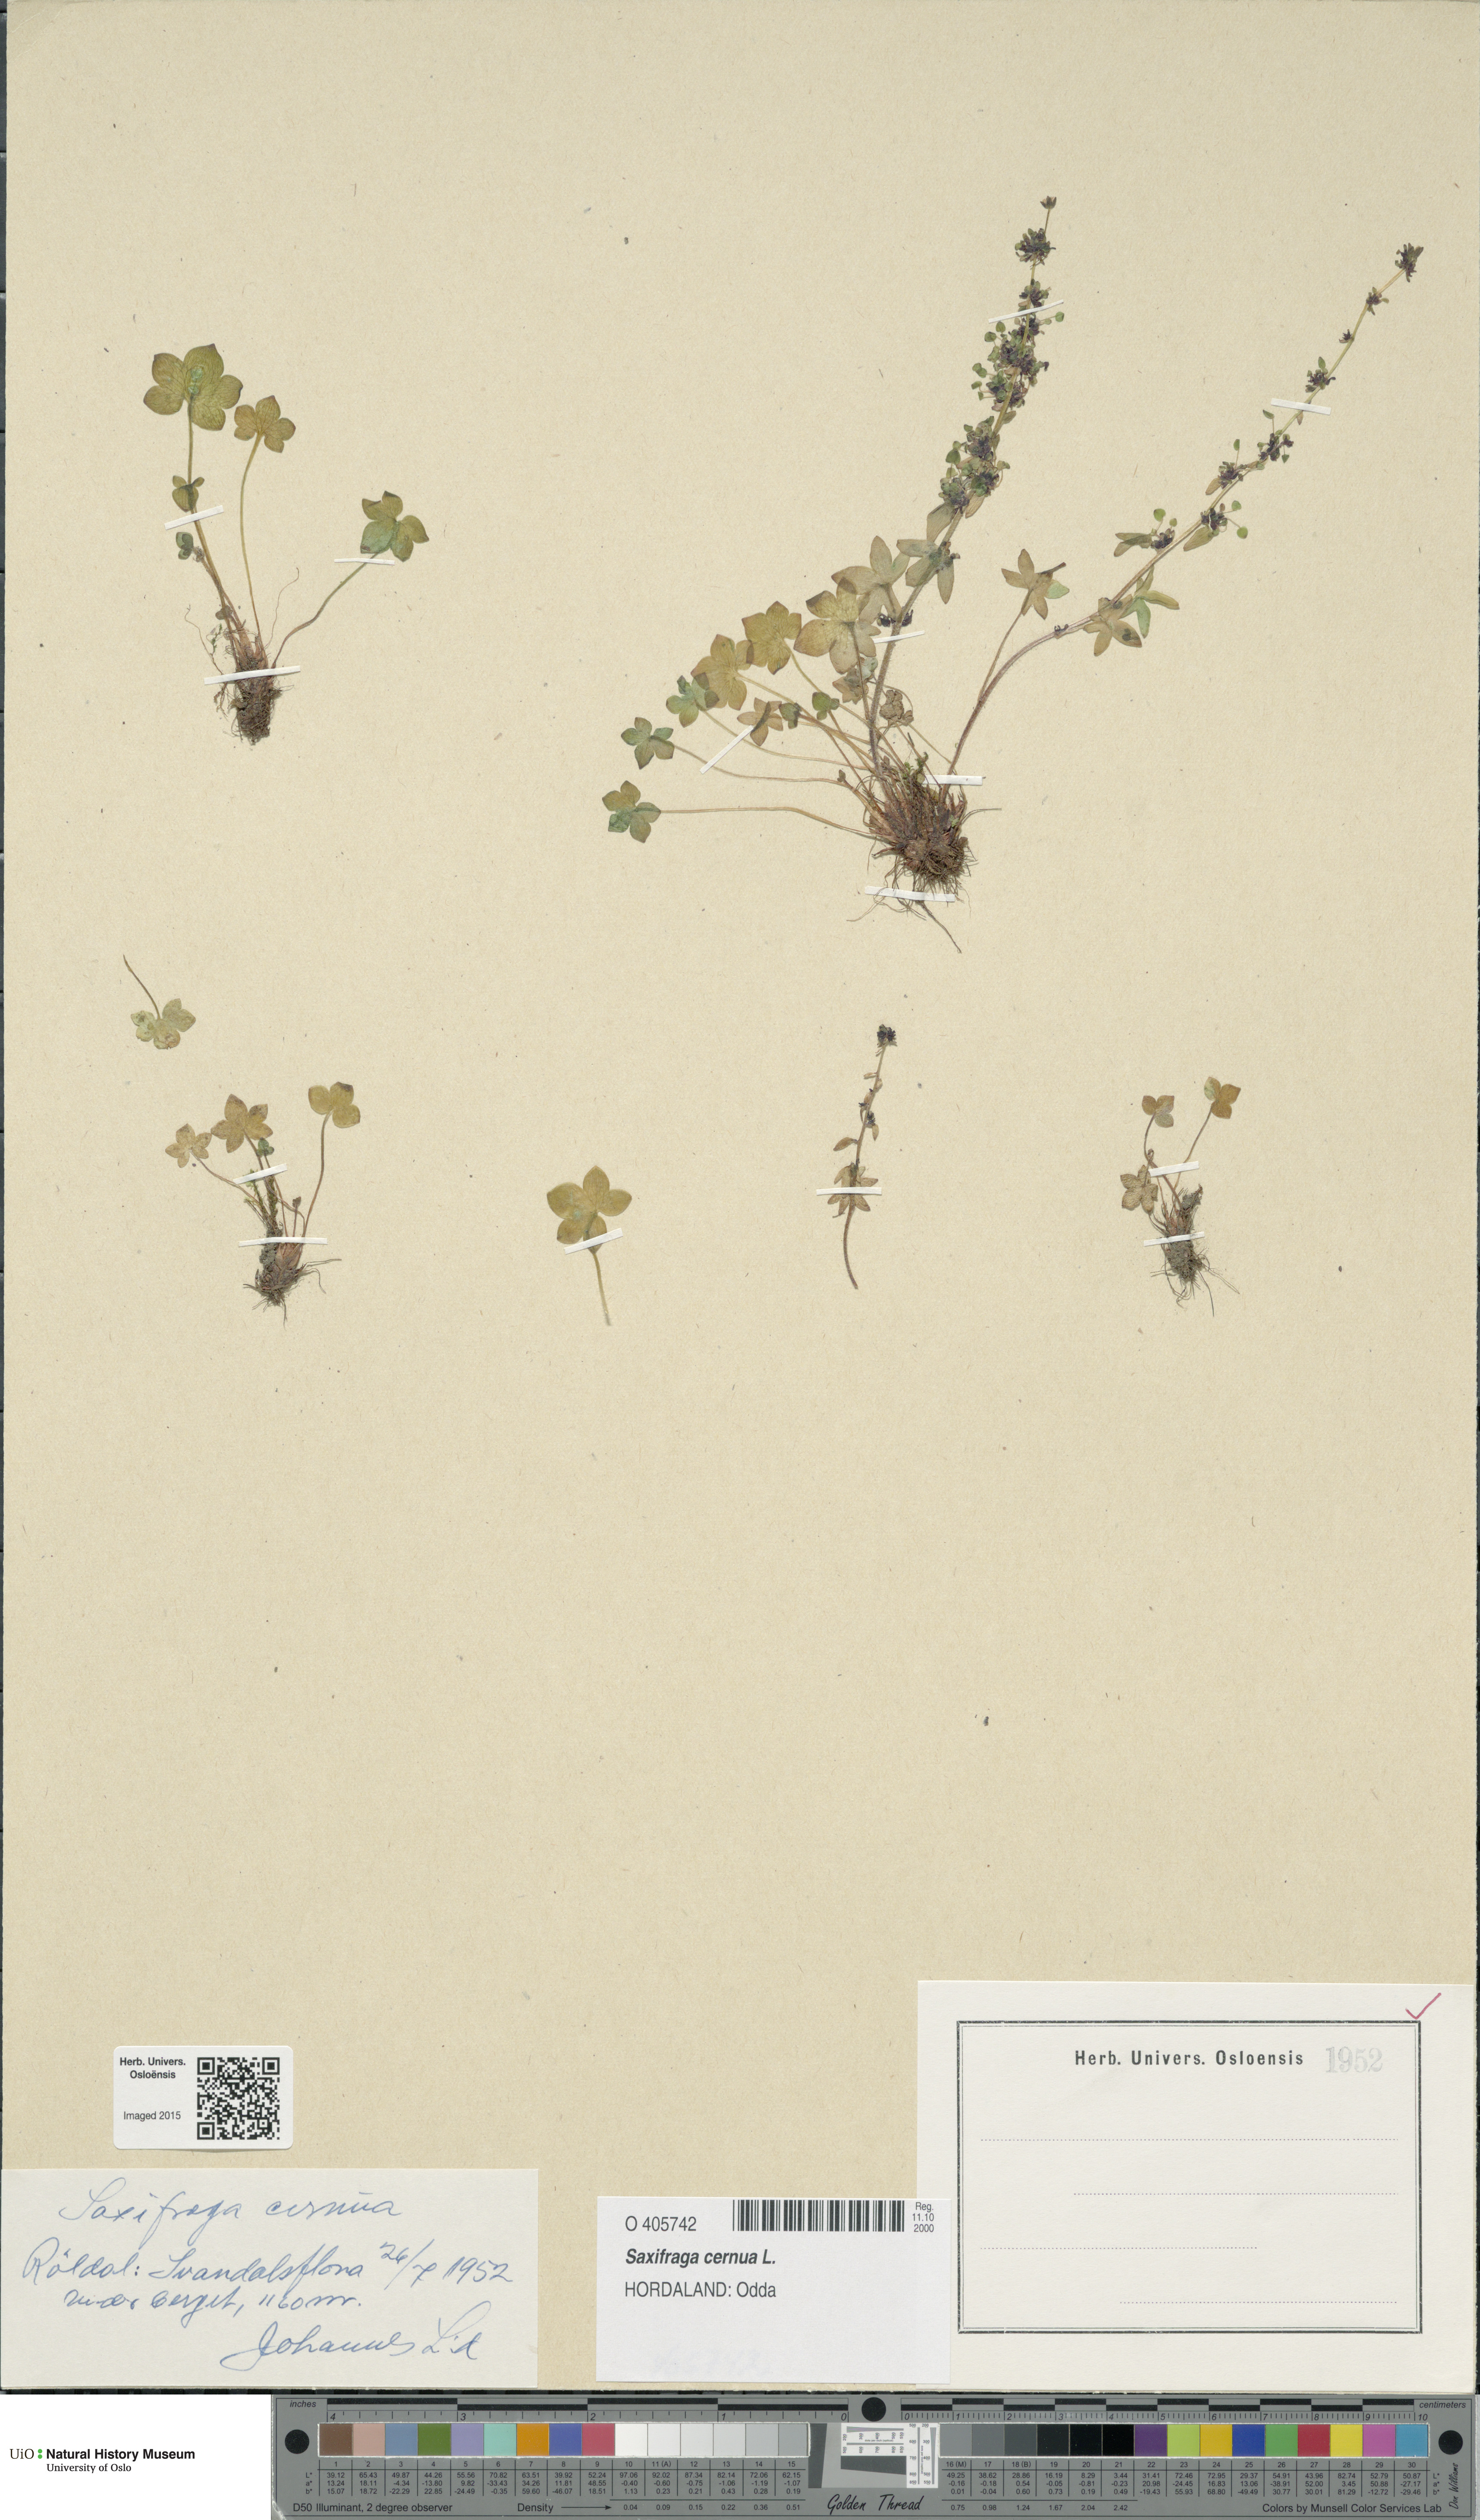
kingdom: Plantae
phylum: Tracheophyta
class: Magnoliopsida
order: Saxifragales
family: Saxifragaceae
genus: Saxifraga
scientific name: Saxifraga cernua
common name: Drooping saxifrage
